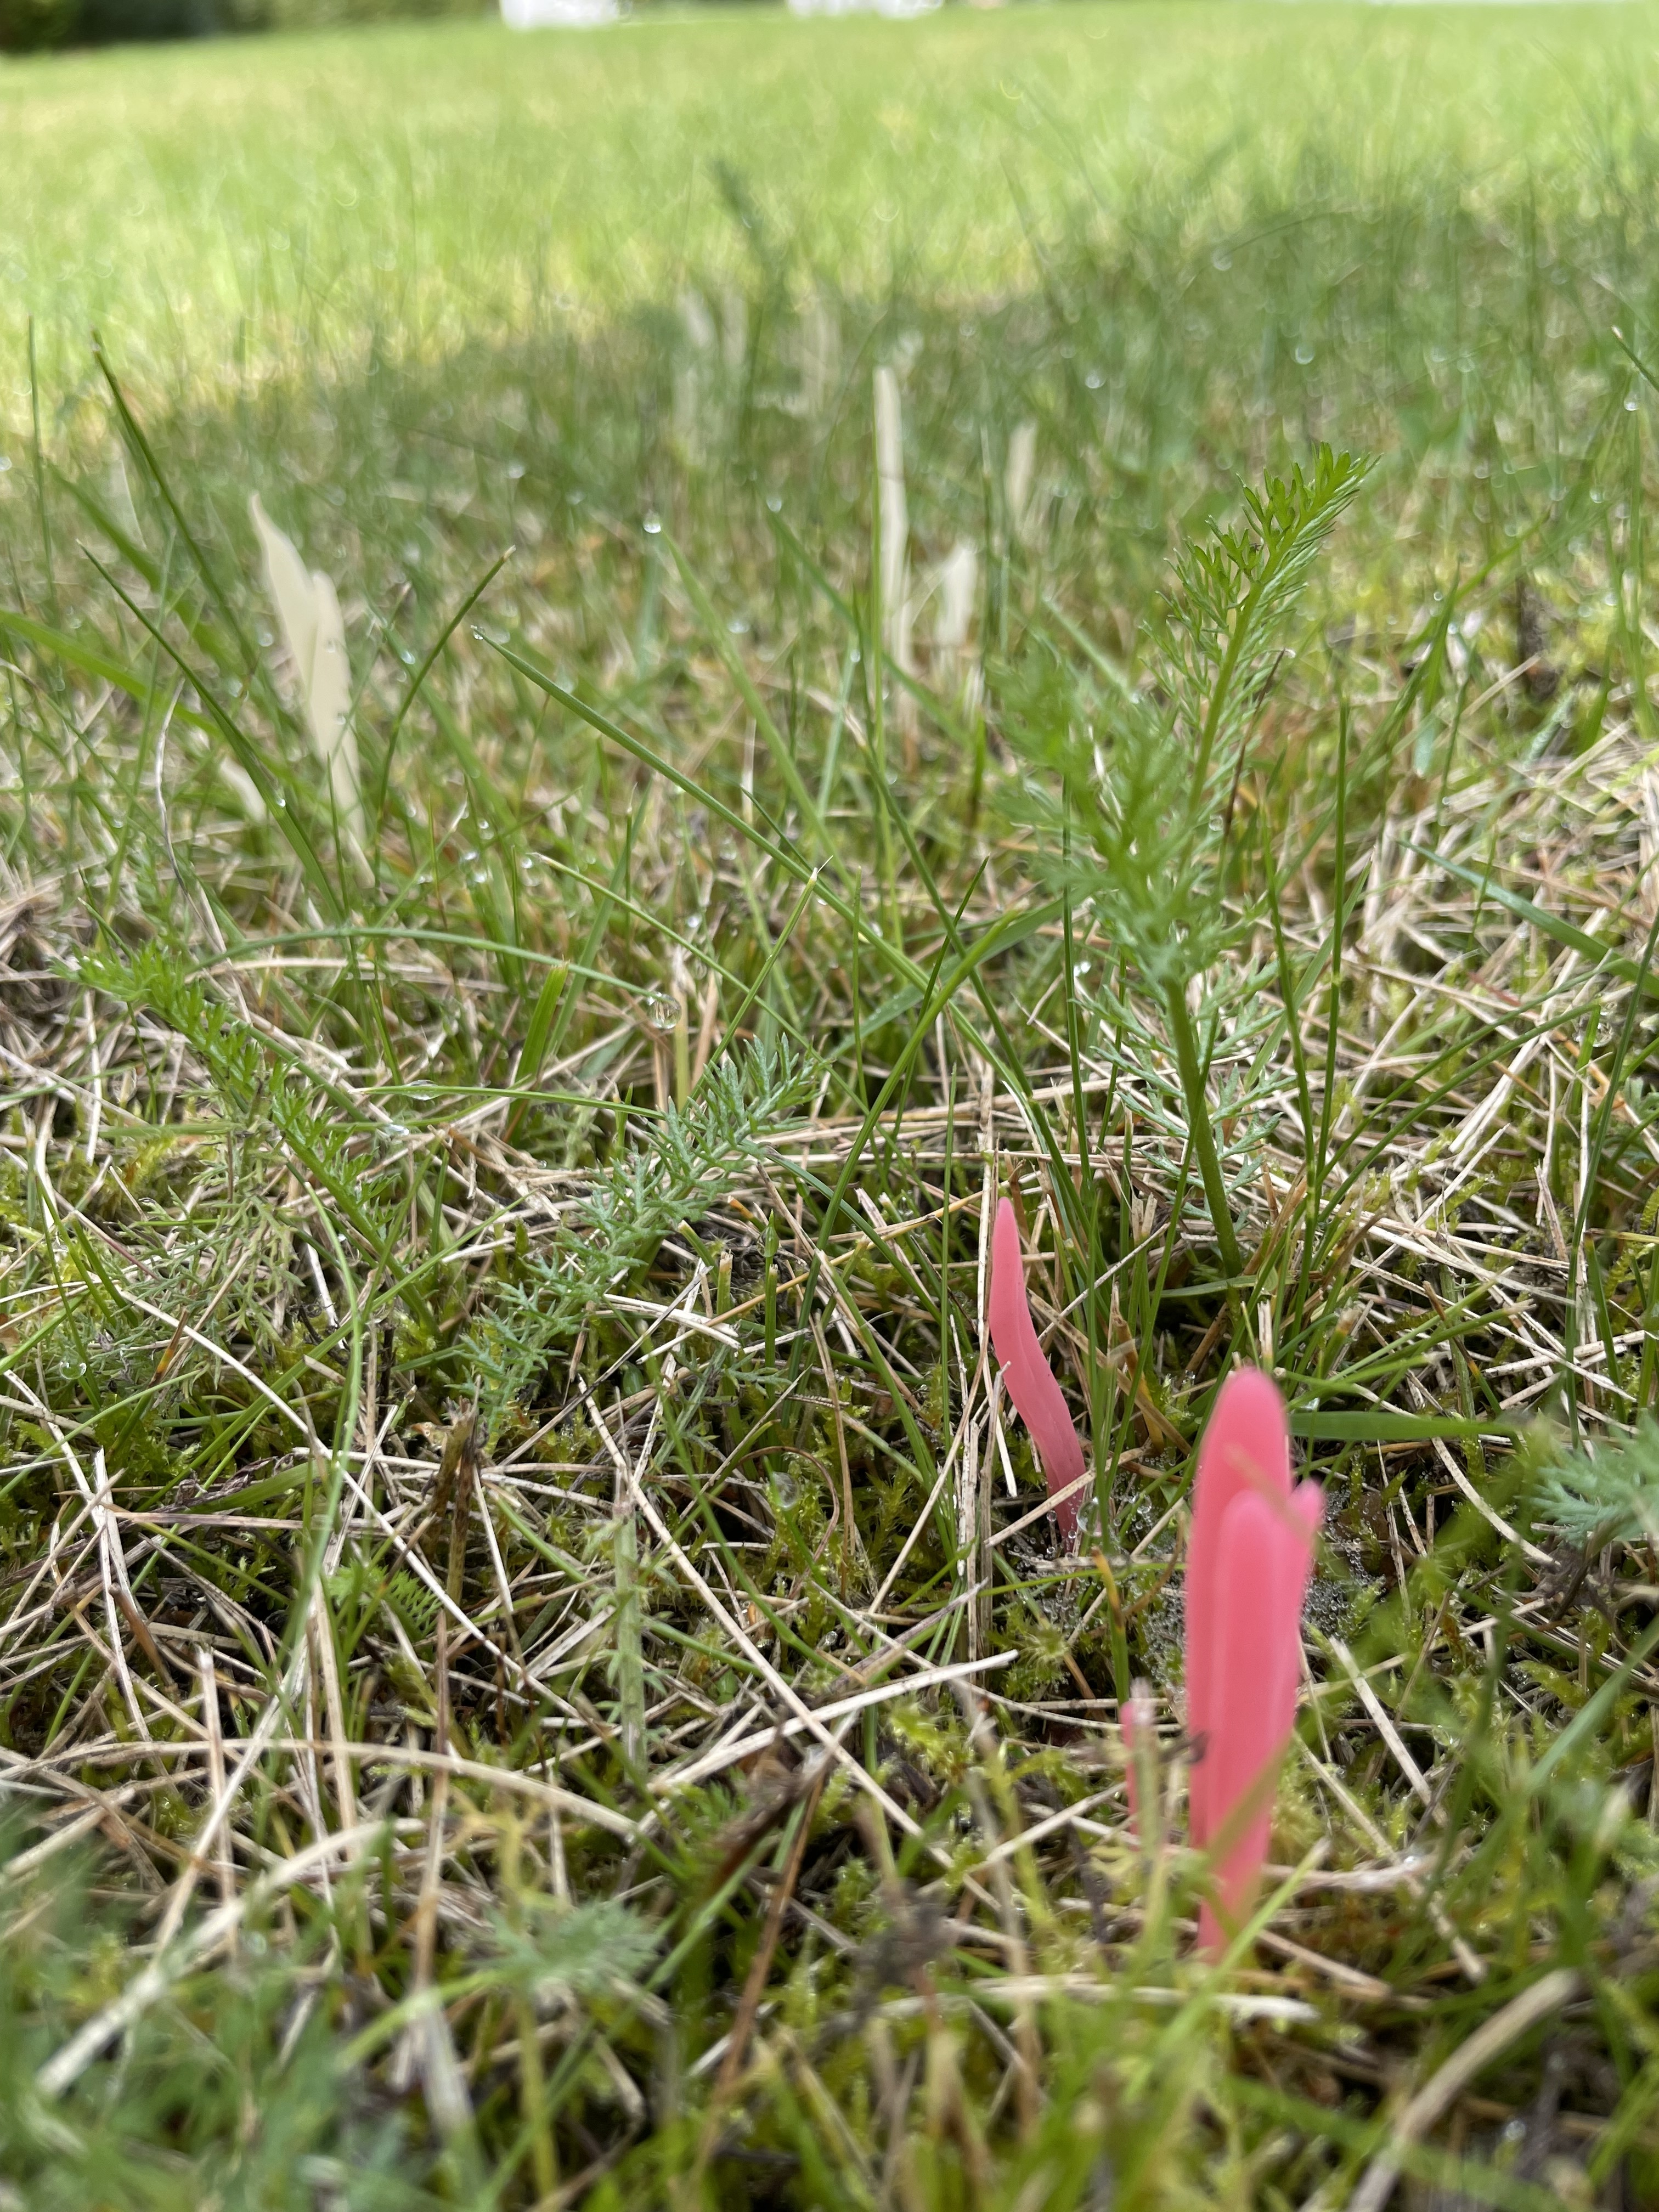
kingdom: Fungi
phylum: Basidiomycota
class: Agaricomycetes
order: Agaricales
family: Clavariaceae
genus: Clavaria
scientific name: Clavaria rosea
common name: Rose spindles
